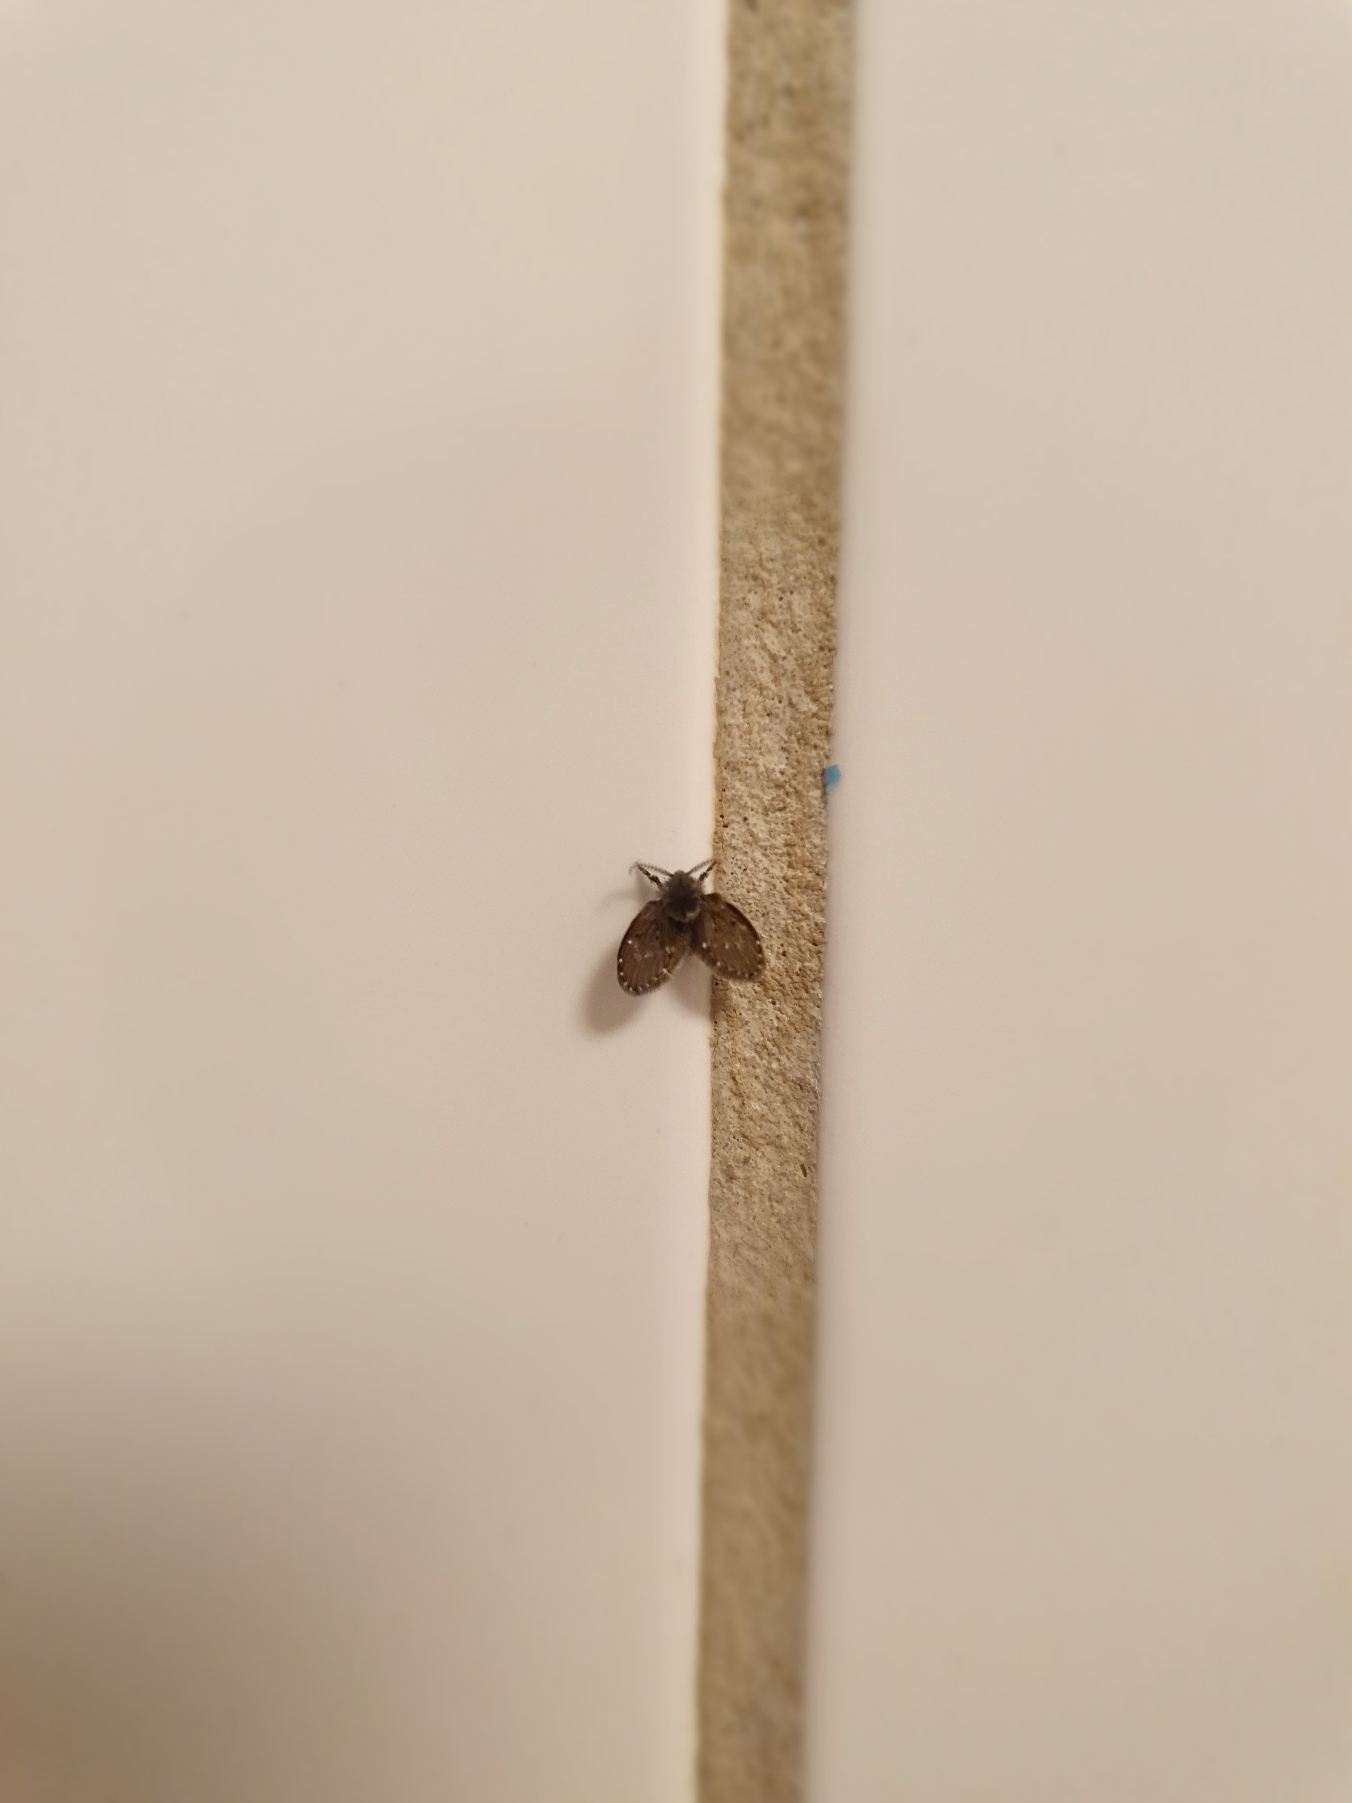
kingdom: Animalia
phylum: Arthropoda
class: Insecta
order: Diptera
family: Psychodidae
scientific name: Psychodidae
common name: Sommerfuglemyg
